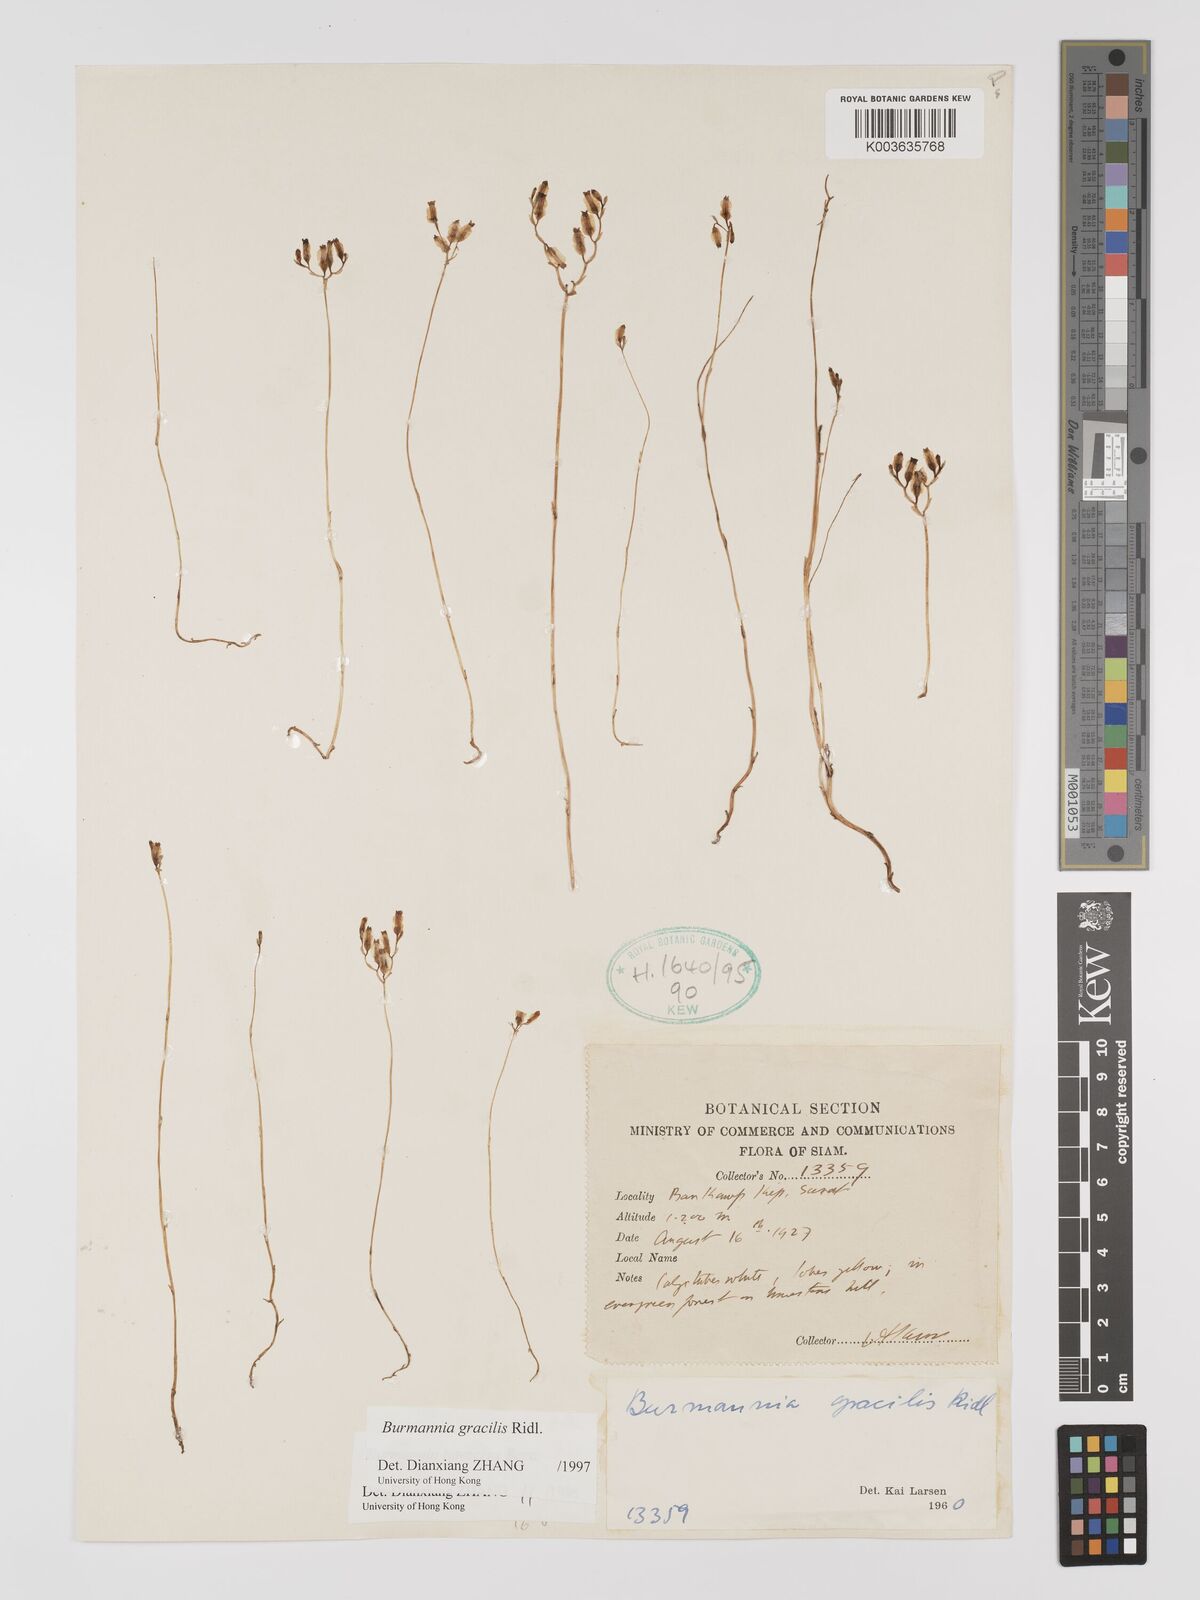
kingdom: Plantae
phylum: Tracheophyta
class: Liliopsida
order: Dioscoreales
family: Burmanniaceae
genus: Burmannia
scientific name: Burmannia gracilis
